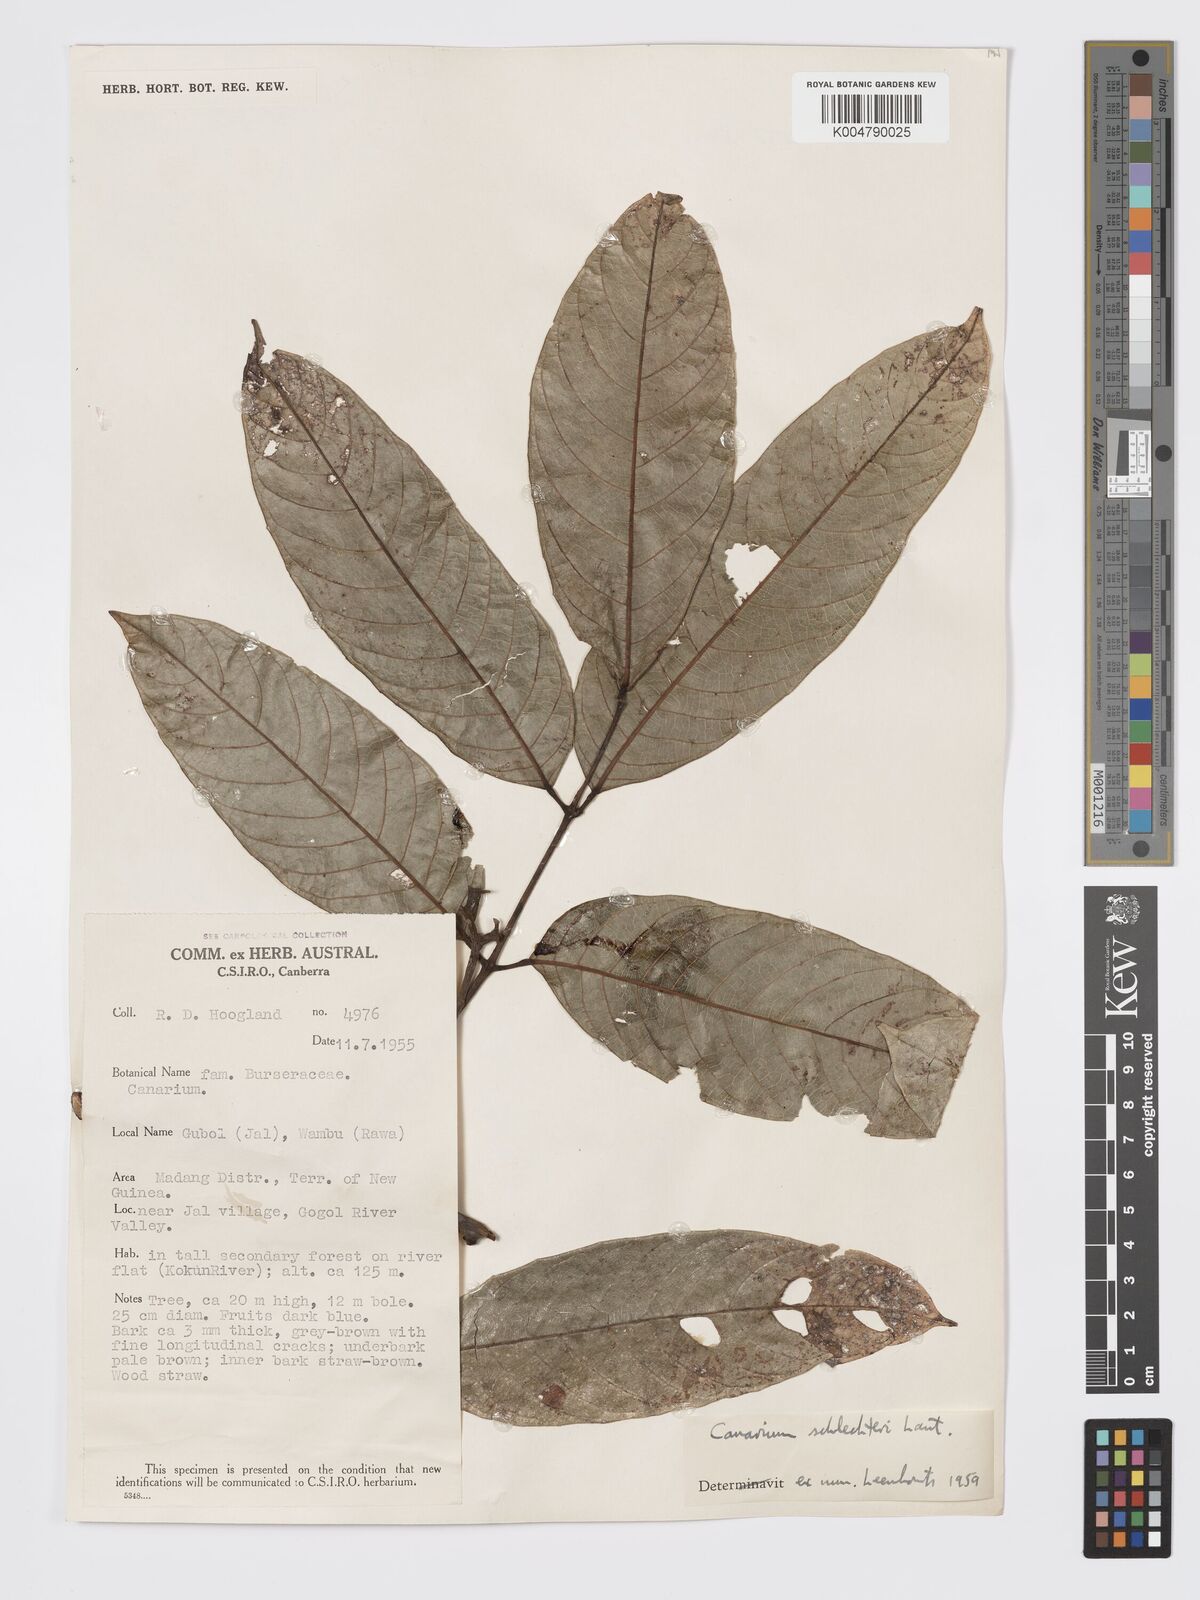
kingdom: Plantae
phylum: Tracheophyta
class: Magnoliopsida
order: Sapindales
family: Burseraceae
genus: Canarium
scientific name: Canarium schlechteri
